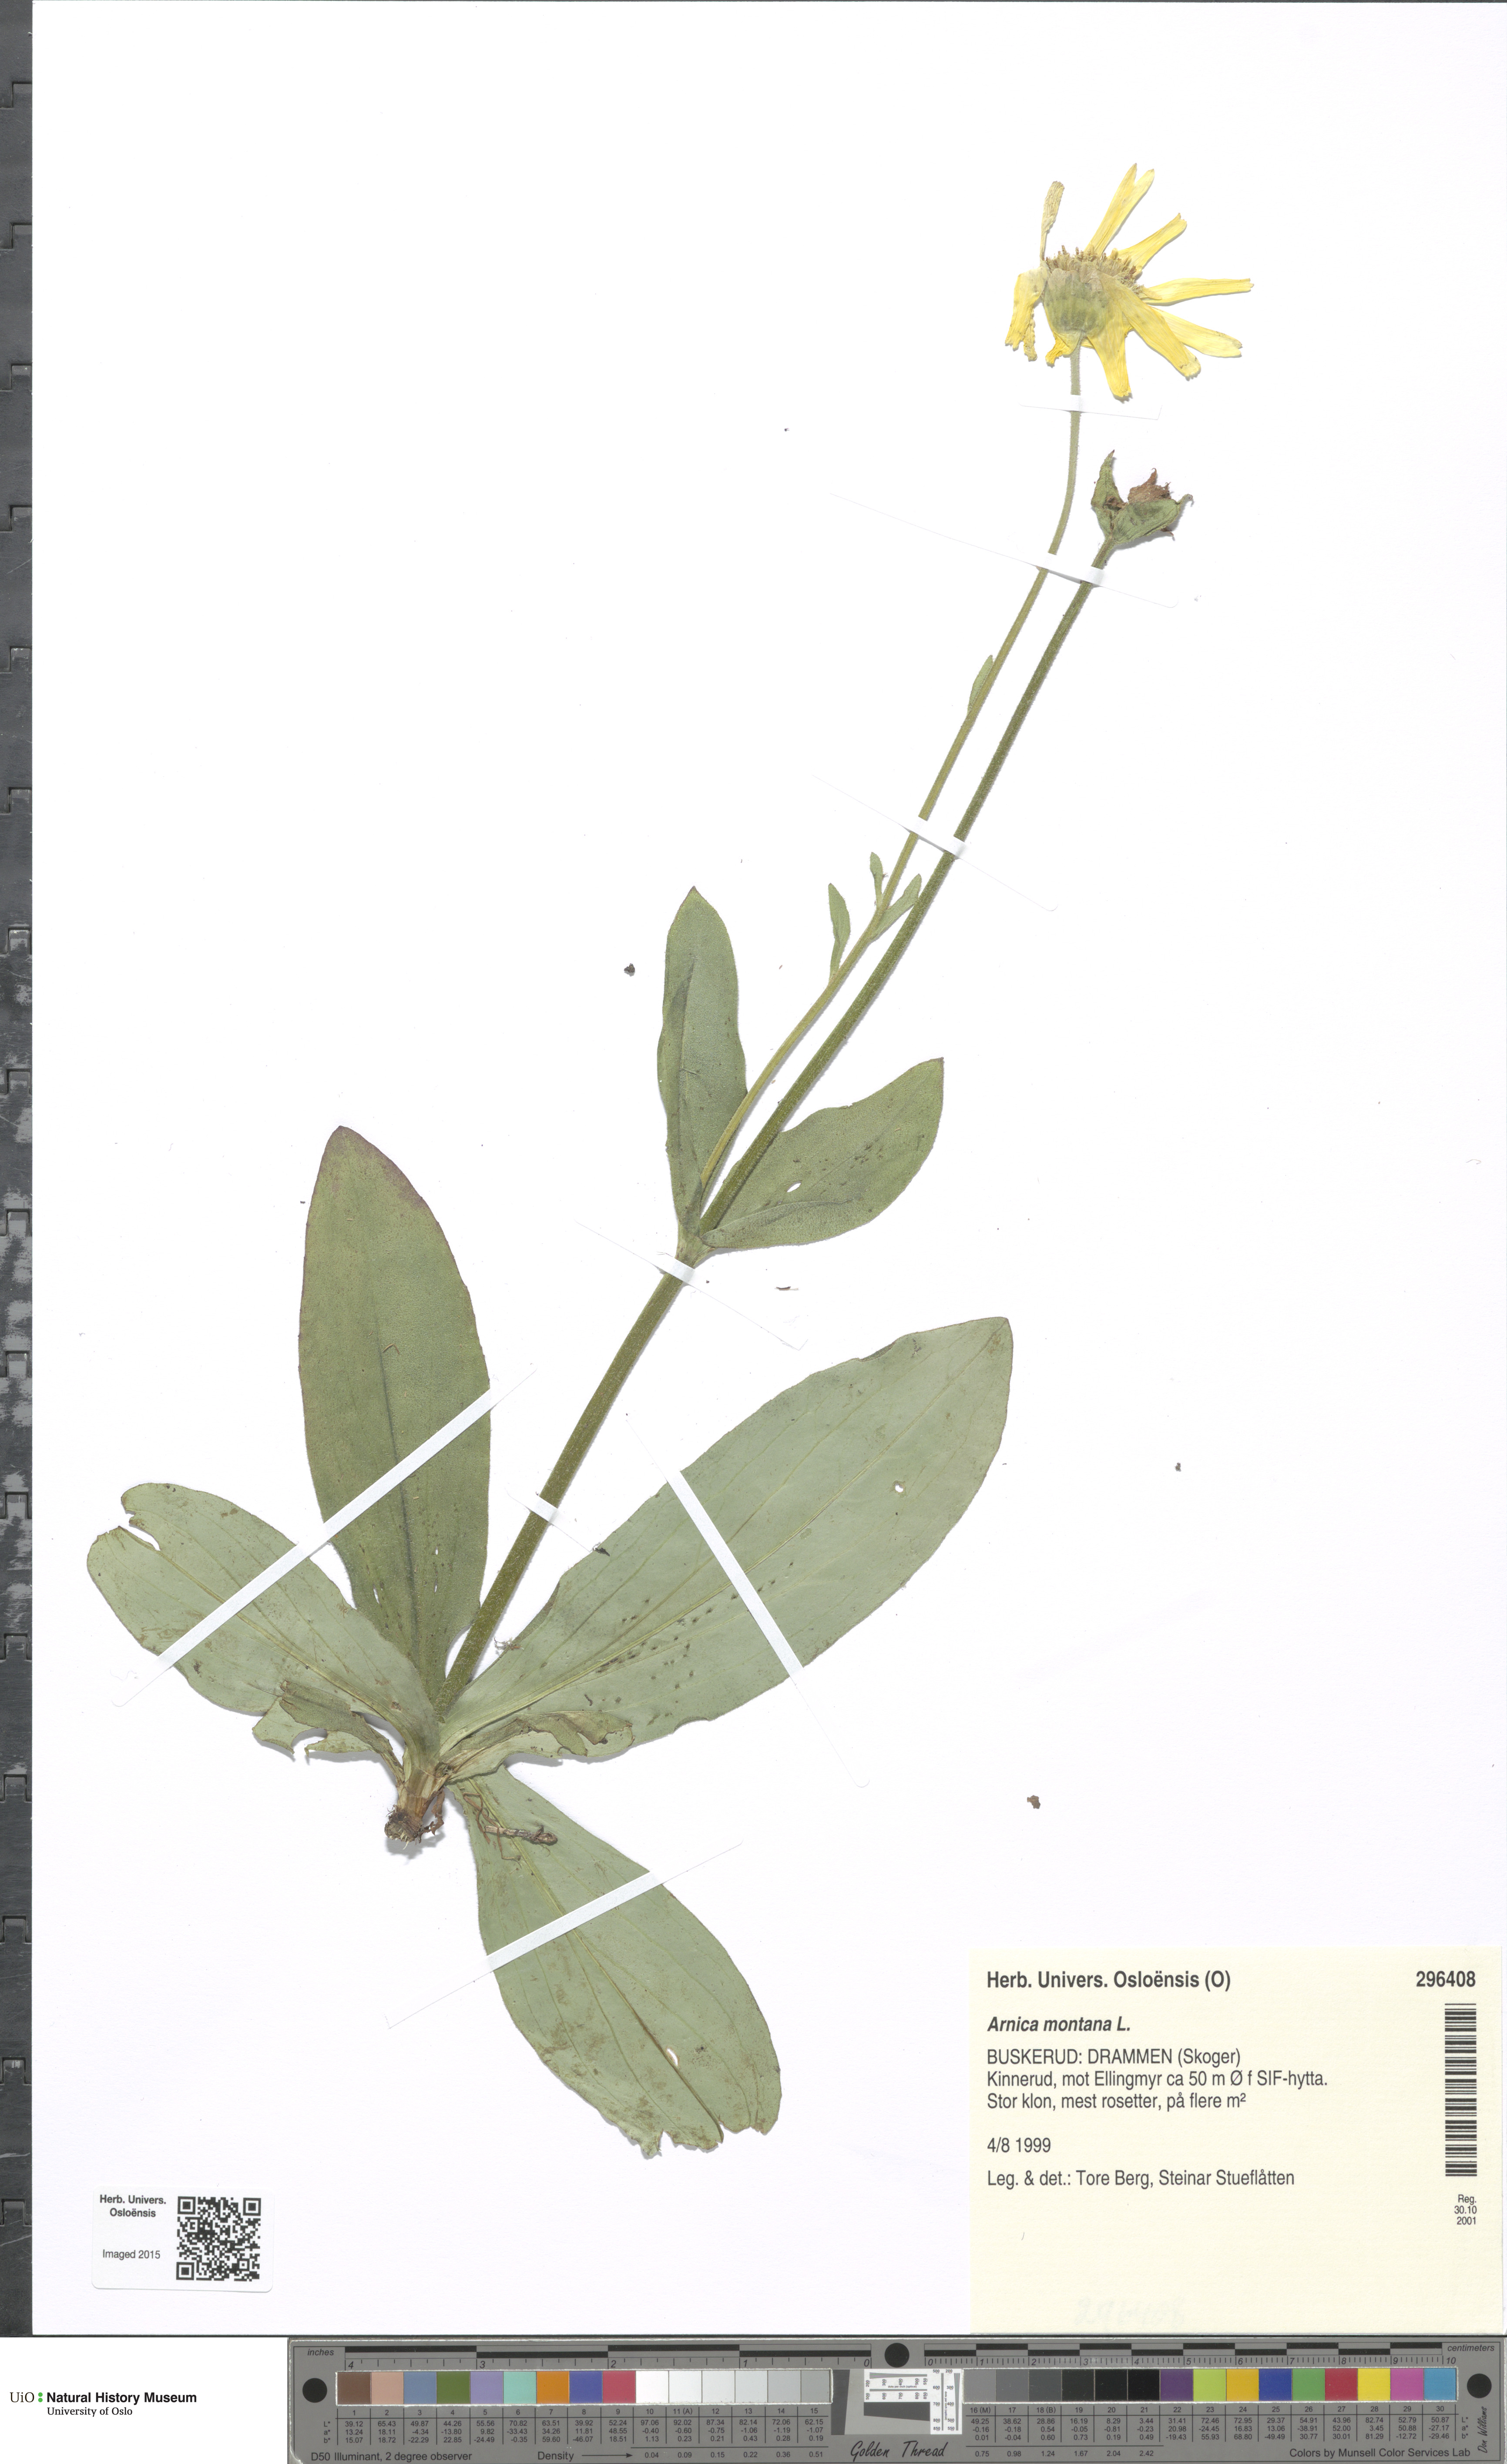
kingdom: Plantae
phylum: Tracheophyta
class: Magnoliopsida
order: Asterales
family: Asteraceae
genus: Arnica
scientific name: Arnica montana
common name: Leopard's bane
